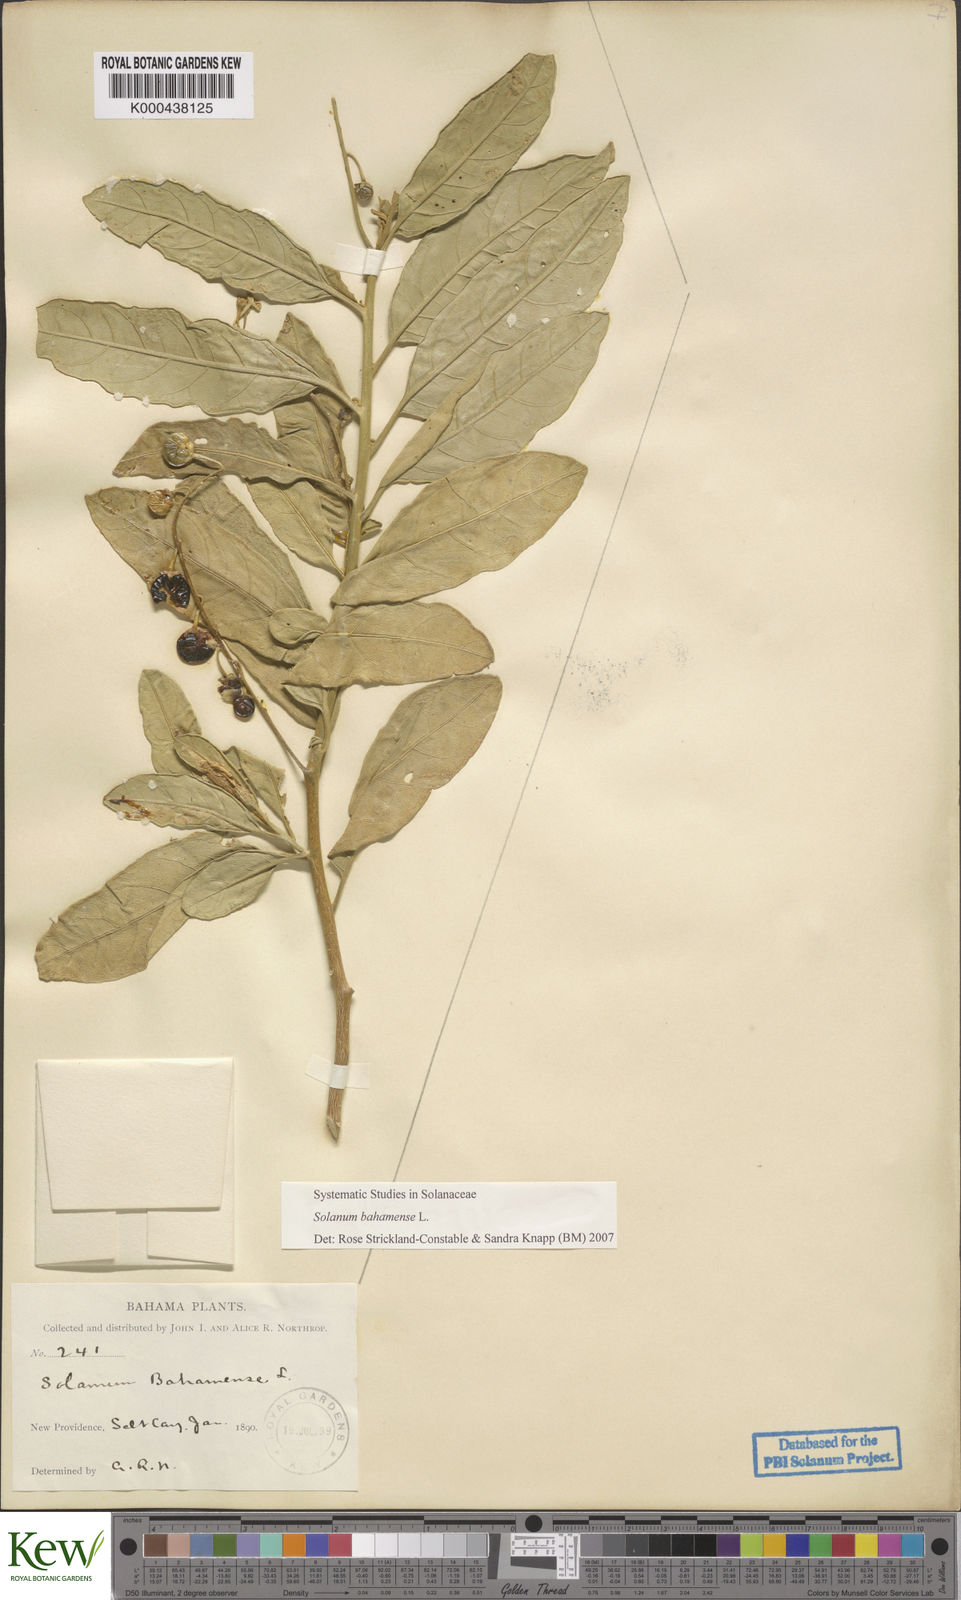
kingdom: Plantae
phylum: Tracheophyta
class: Magnoliopsida
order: Solanales
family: Solanaceae
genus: Solanum
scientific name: Solanum bahamense
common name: Canker-berry
